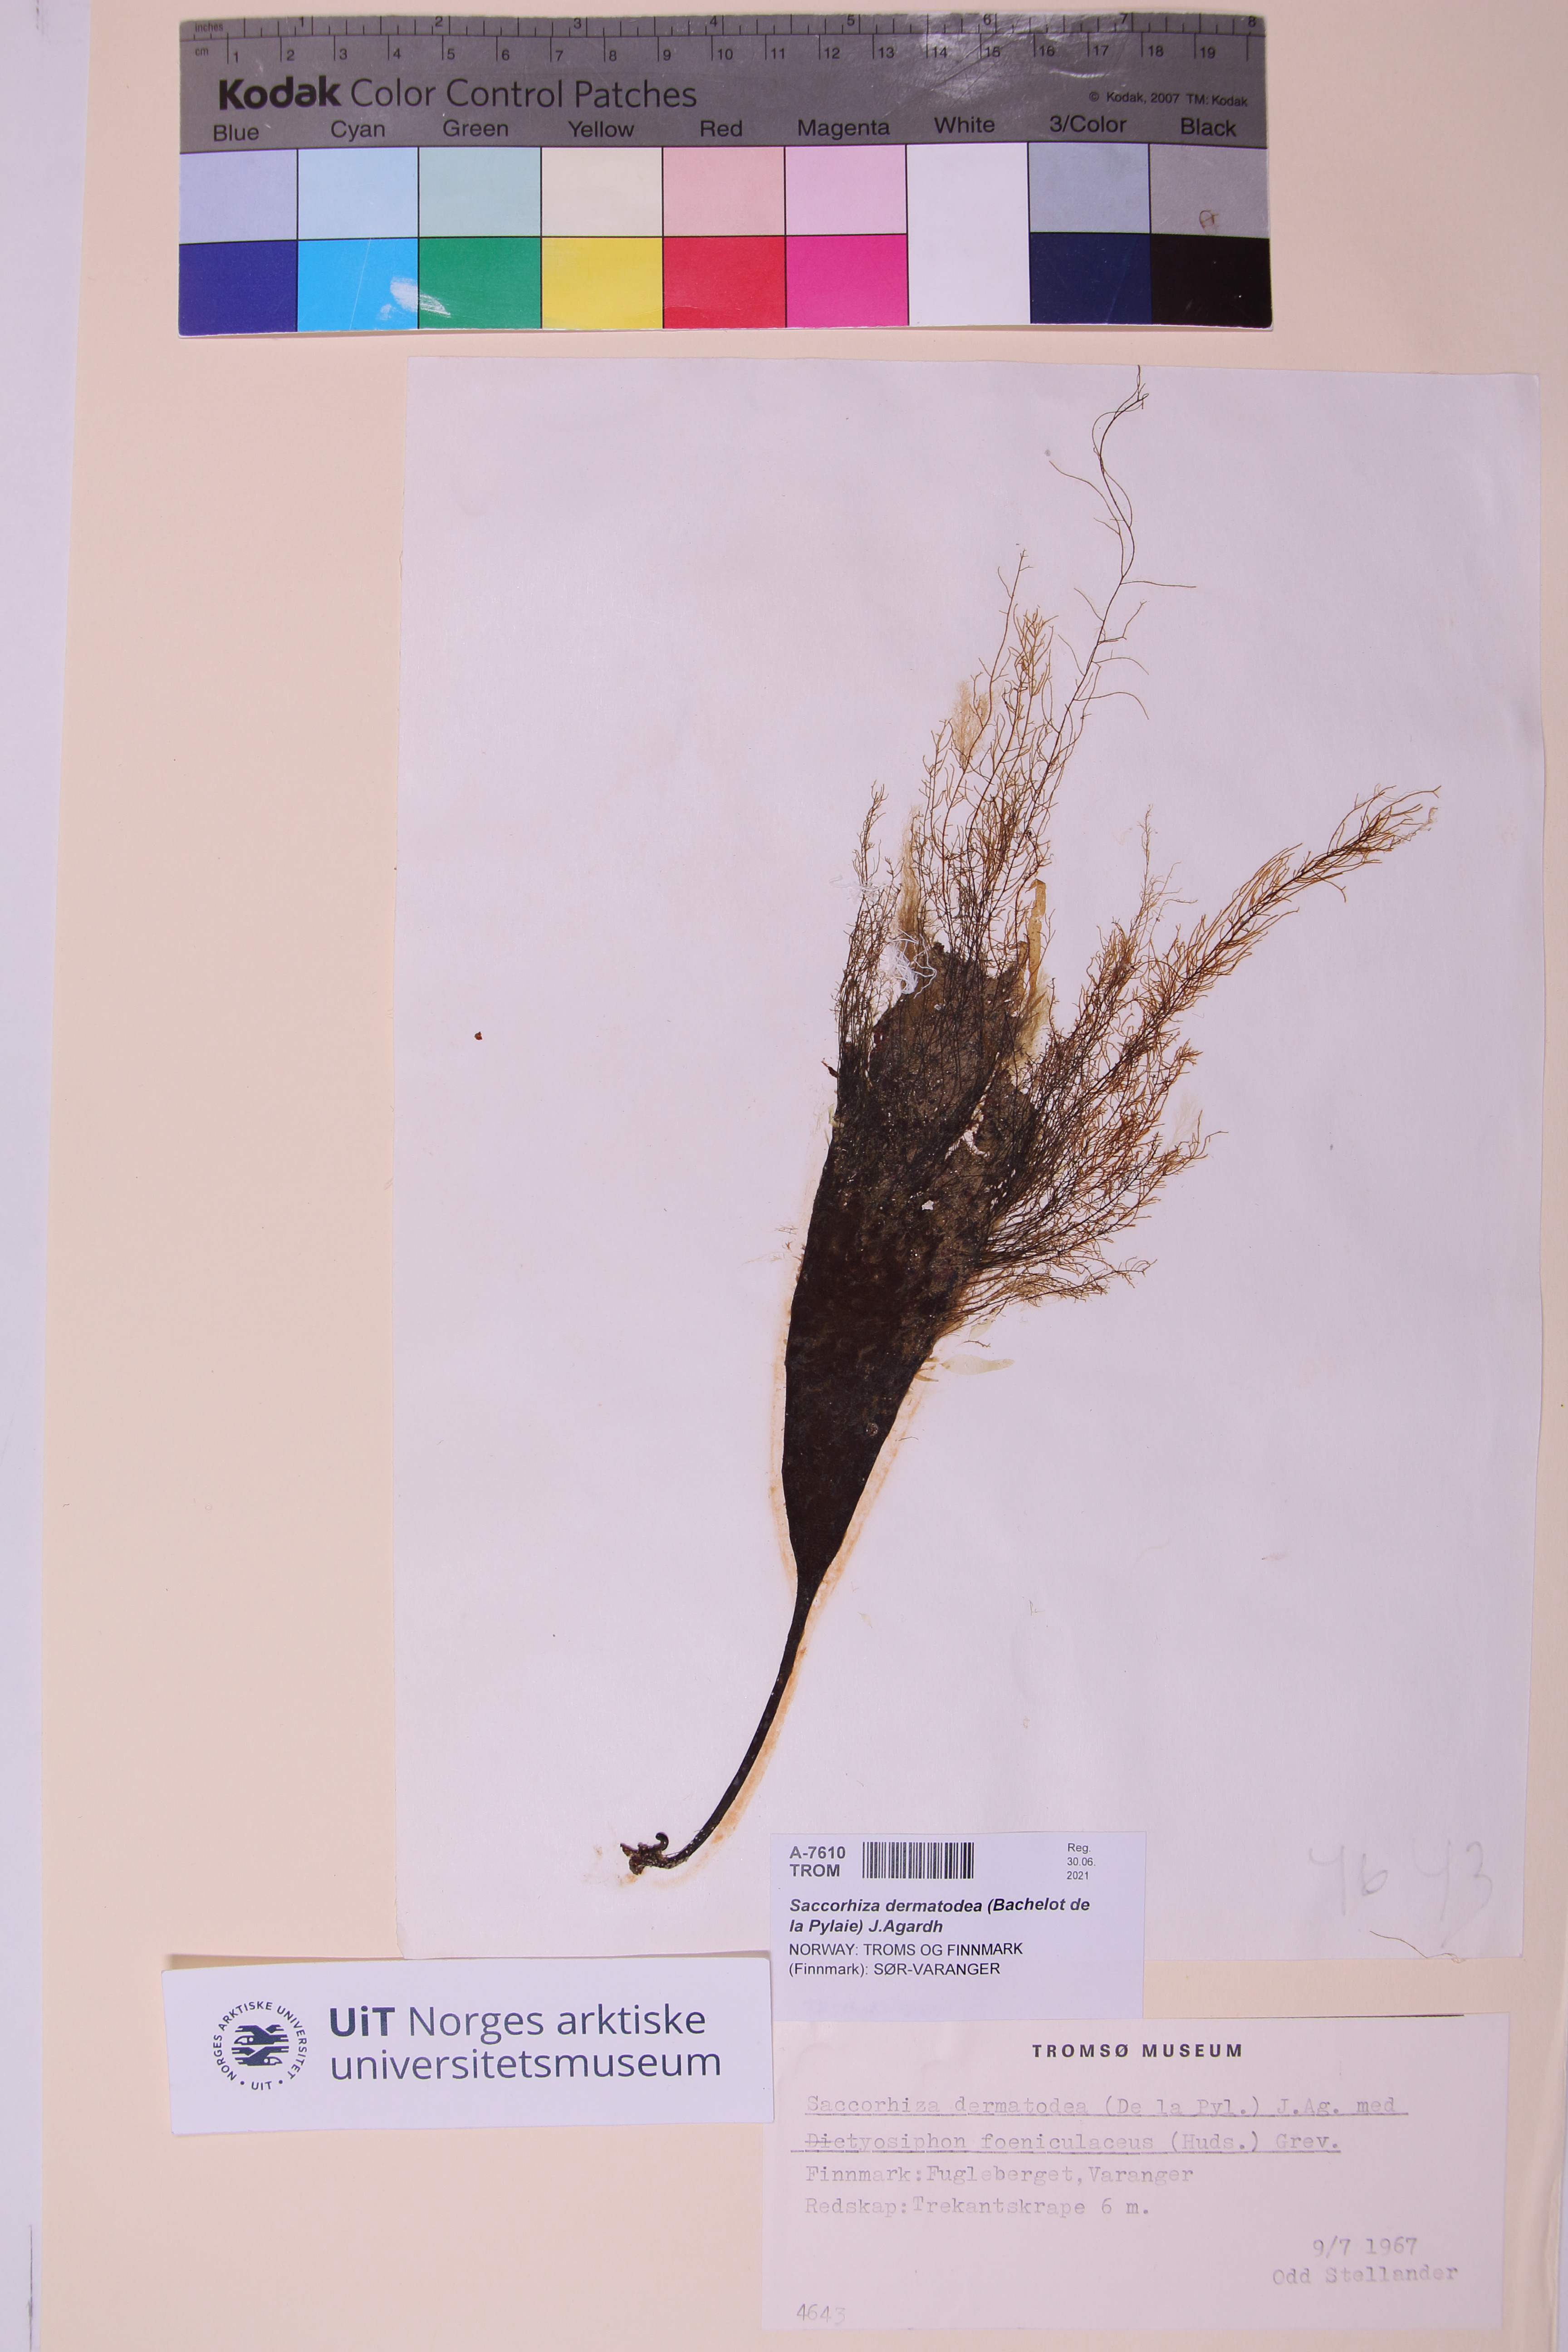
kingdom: Chromista
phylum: Ochrophyta
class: Phaeophyceae
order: Tilopteridales
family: Phyllariaceae
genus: Saccorhiza
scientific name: Saccorhiza dermatodea
